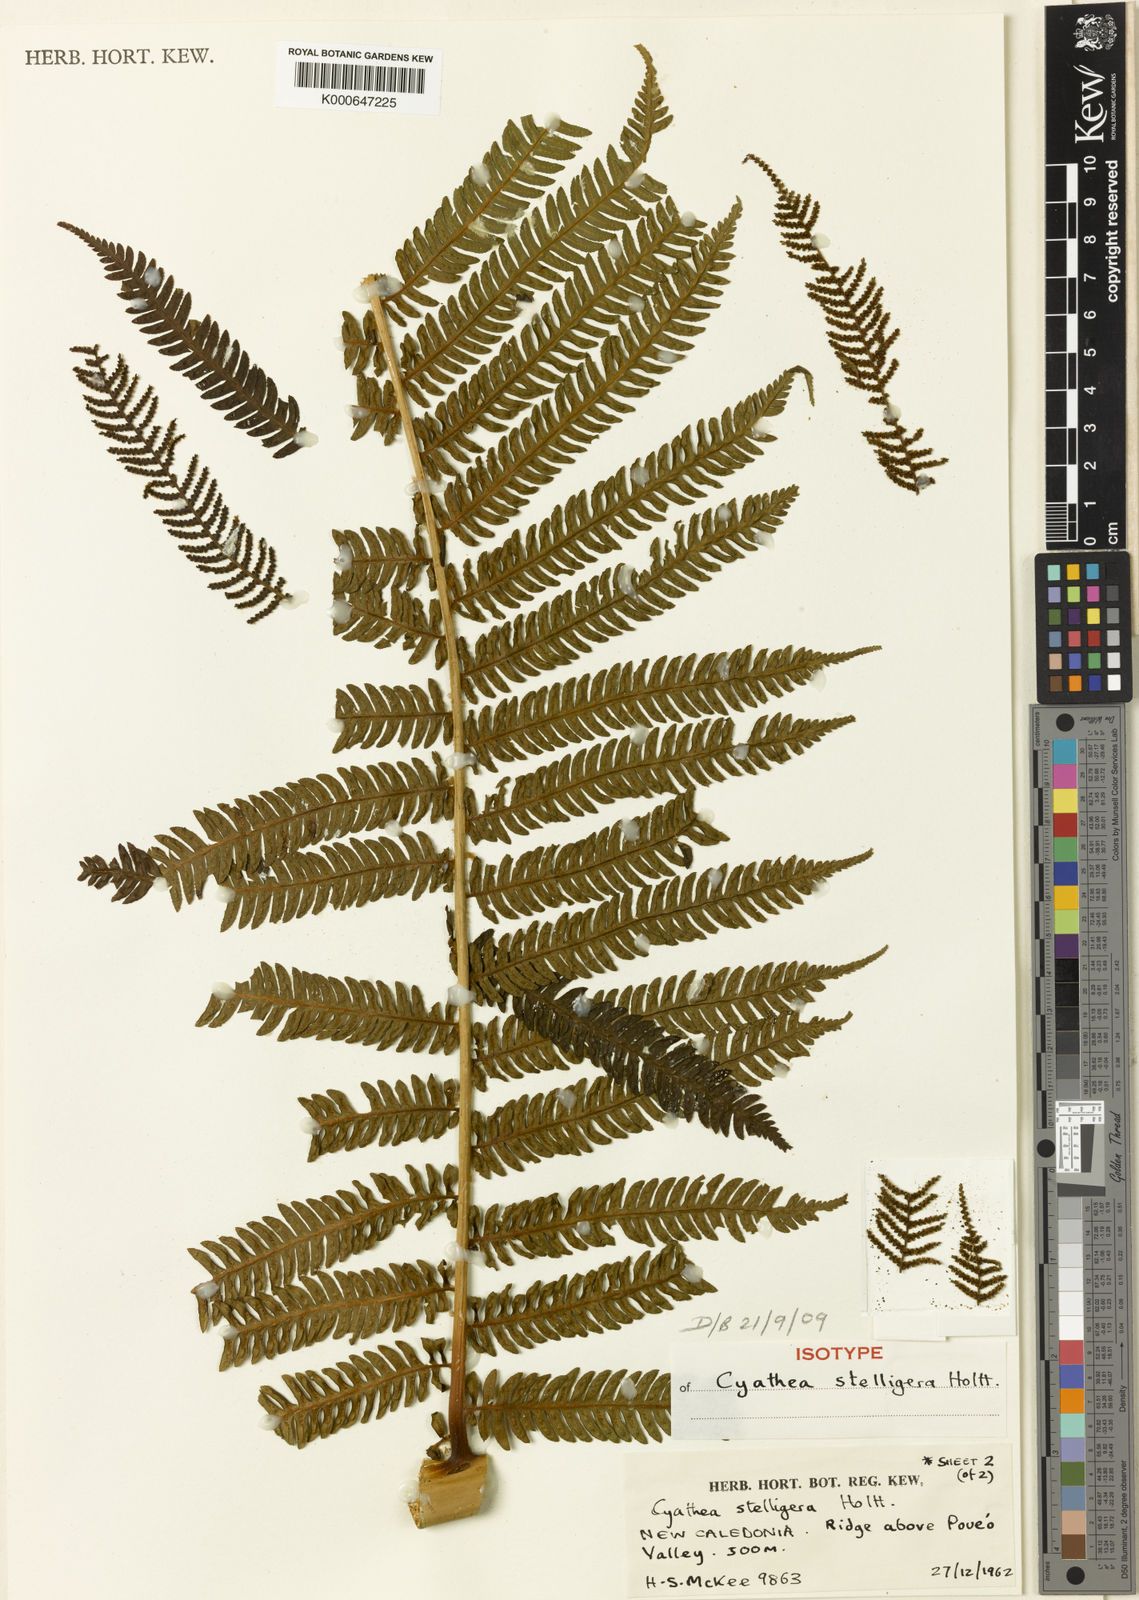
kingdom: Plantae
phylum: Tracheophyta
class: Polypodiopsida
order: Cyatheales
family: Cyatheaceae
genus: Alsophila
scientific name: Alsophila stelligera
